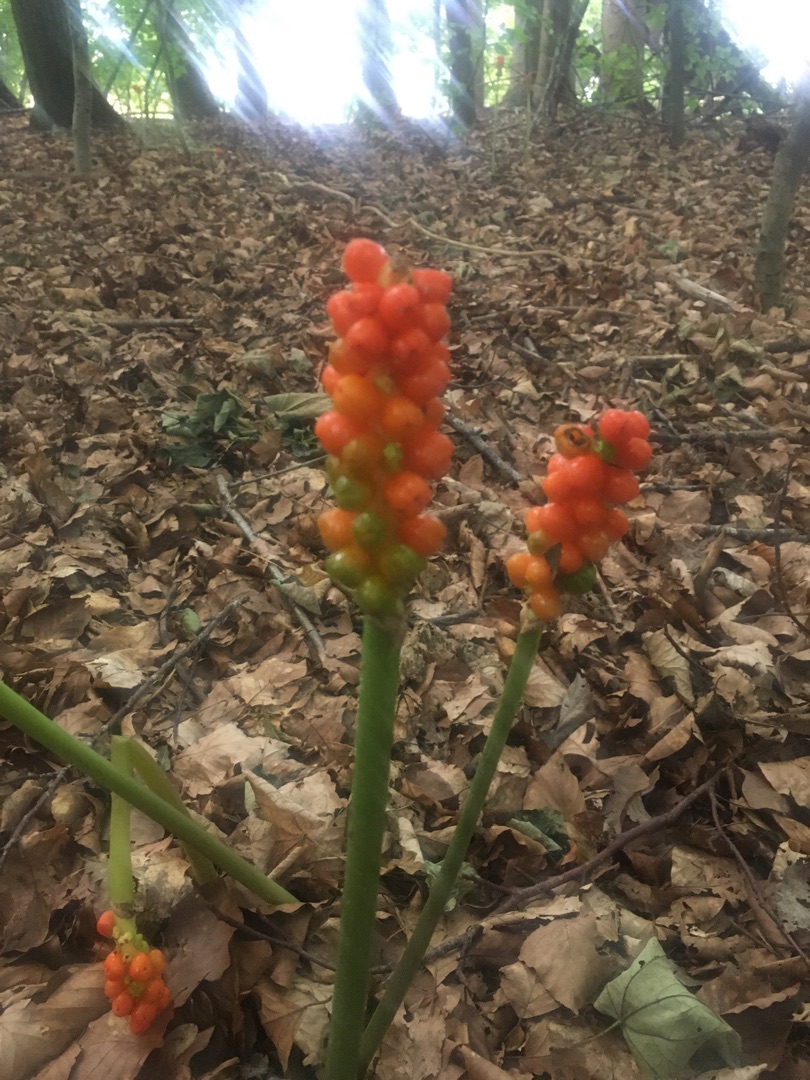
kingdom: Plantae
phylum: Tracheophyta
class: Liliopsida
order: Alismatales
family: Araceae
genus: Arum
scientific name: Arum
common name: Arumslægten
